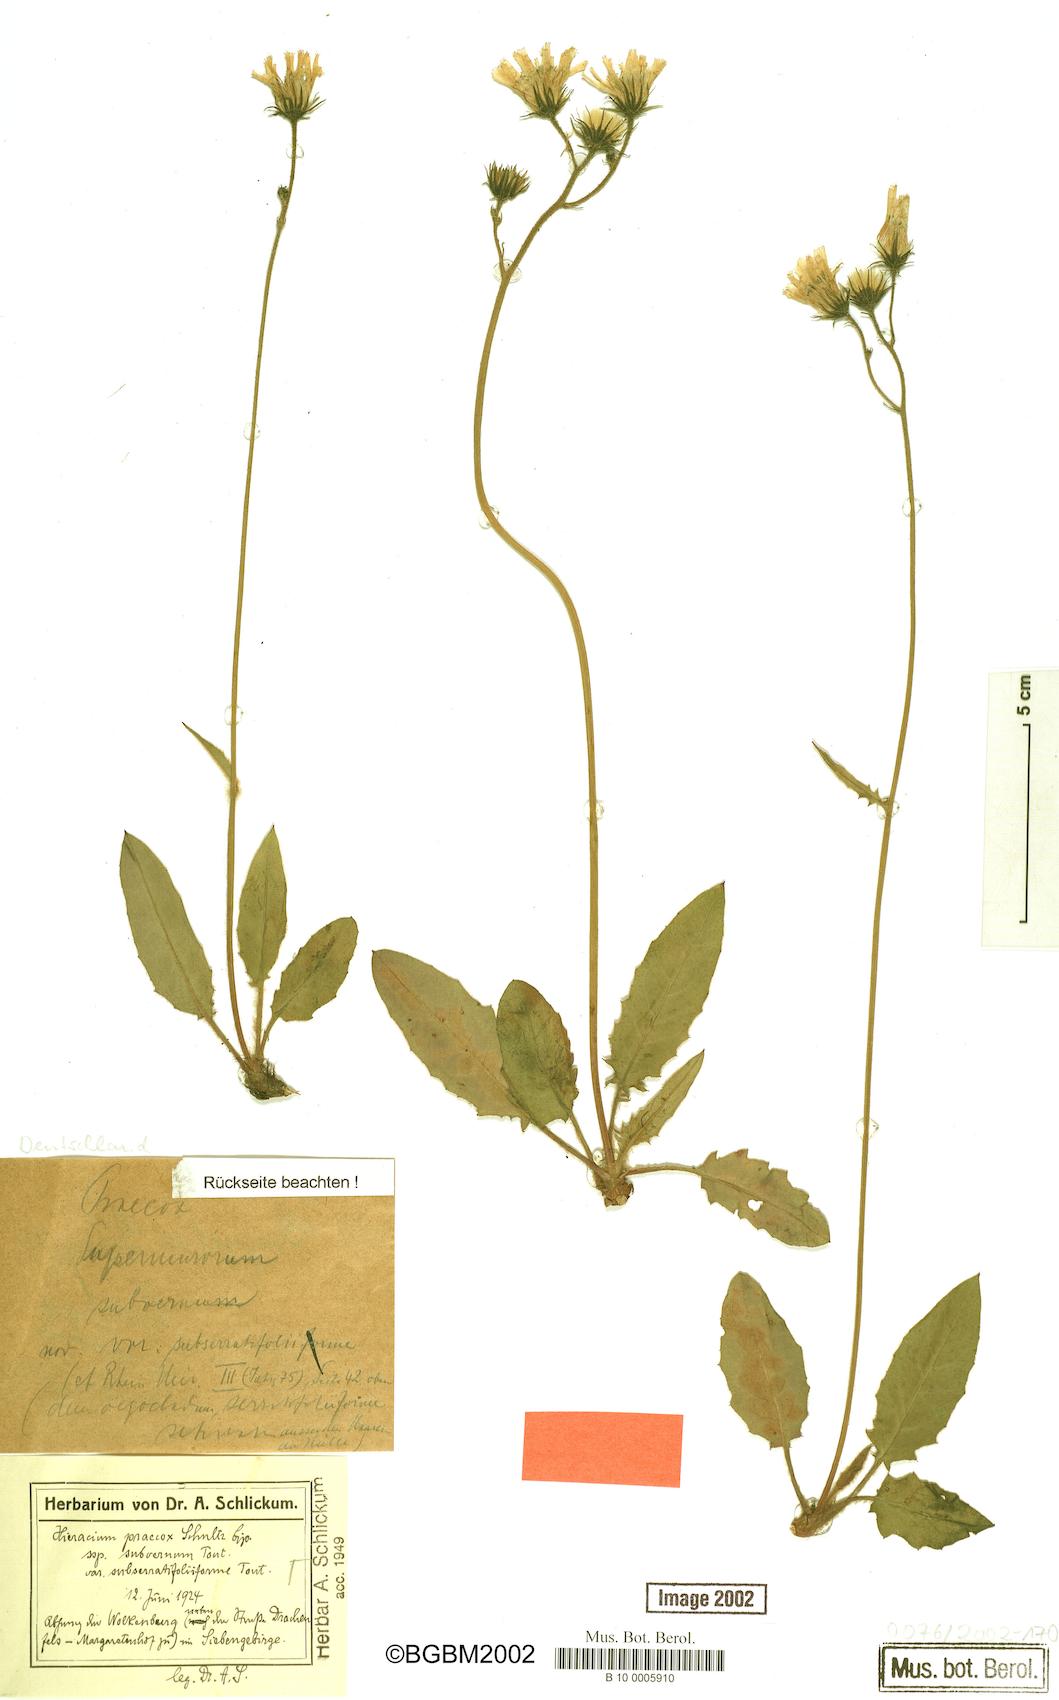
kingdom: Plantae
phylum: Tracheophyta
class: Magnoliopsida
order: Asterales
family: Asteraceae
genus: Hieracium
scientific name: Hieracium praecox
